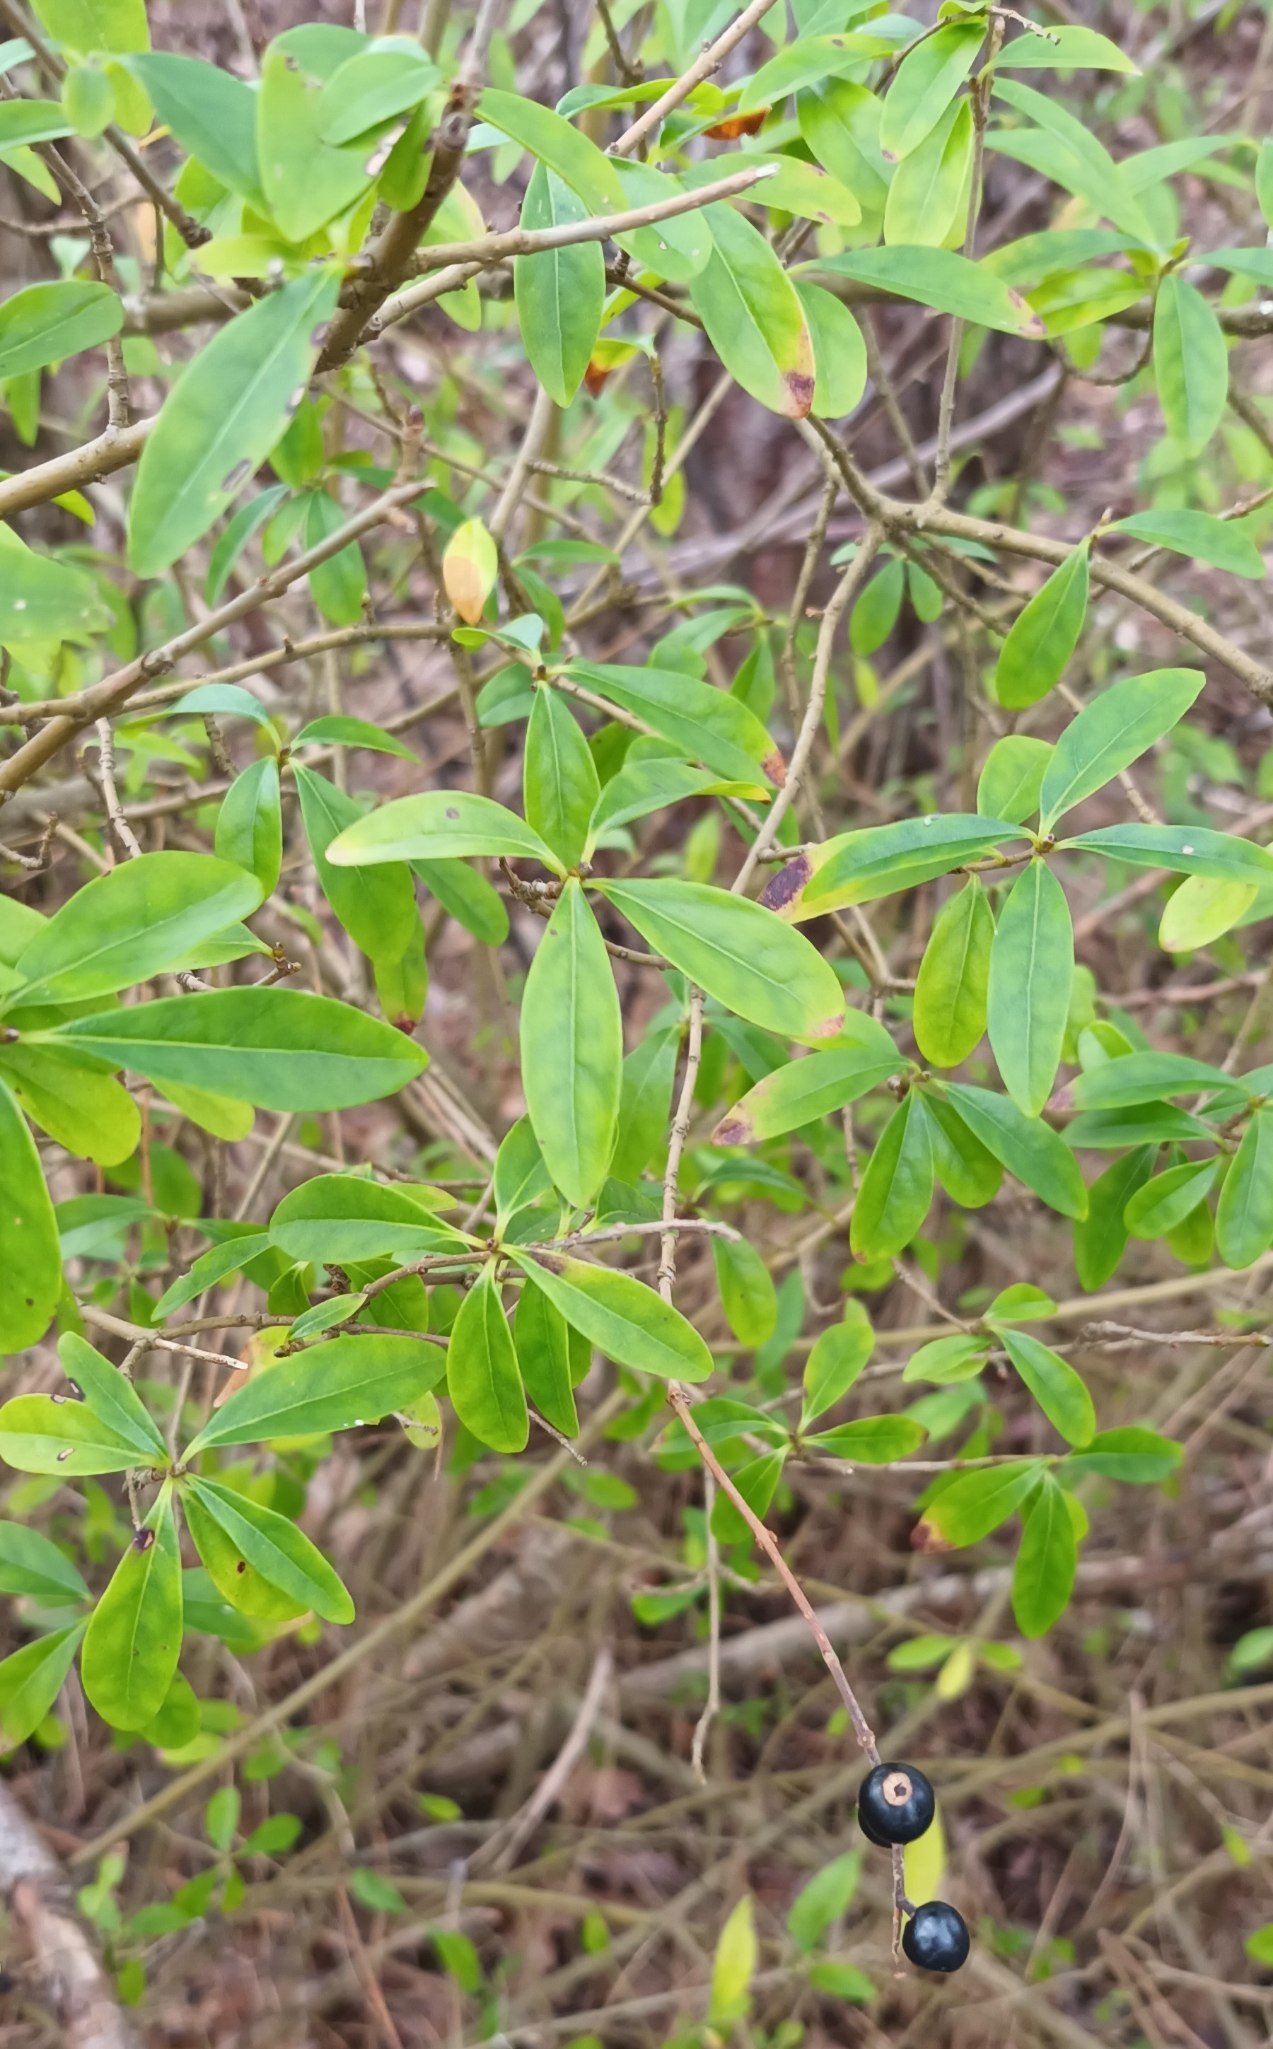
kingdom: Plantae
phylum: Tracheophyta
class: Magnoliopsida
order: Lamiales
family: Oleaceae
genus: Ligustrum
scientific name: Ligustrum vulgare
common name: Liguster
